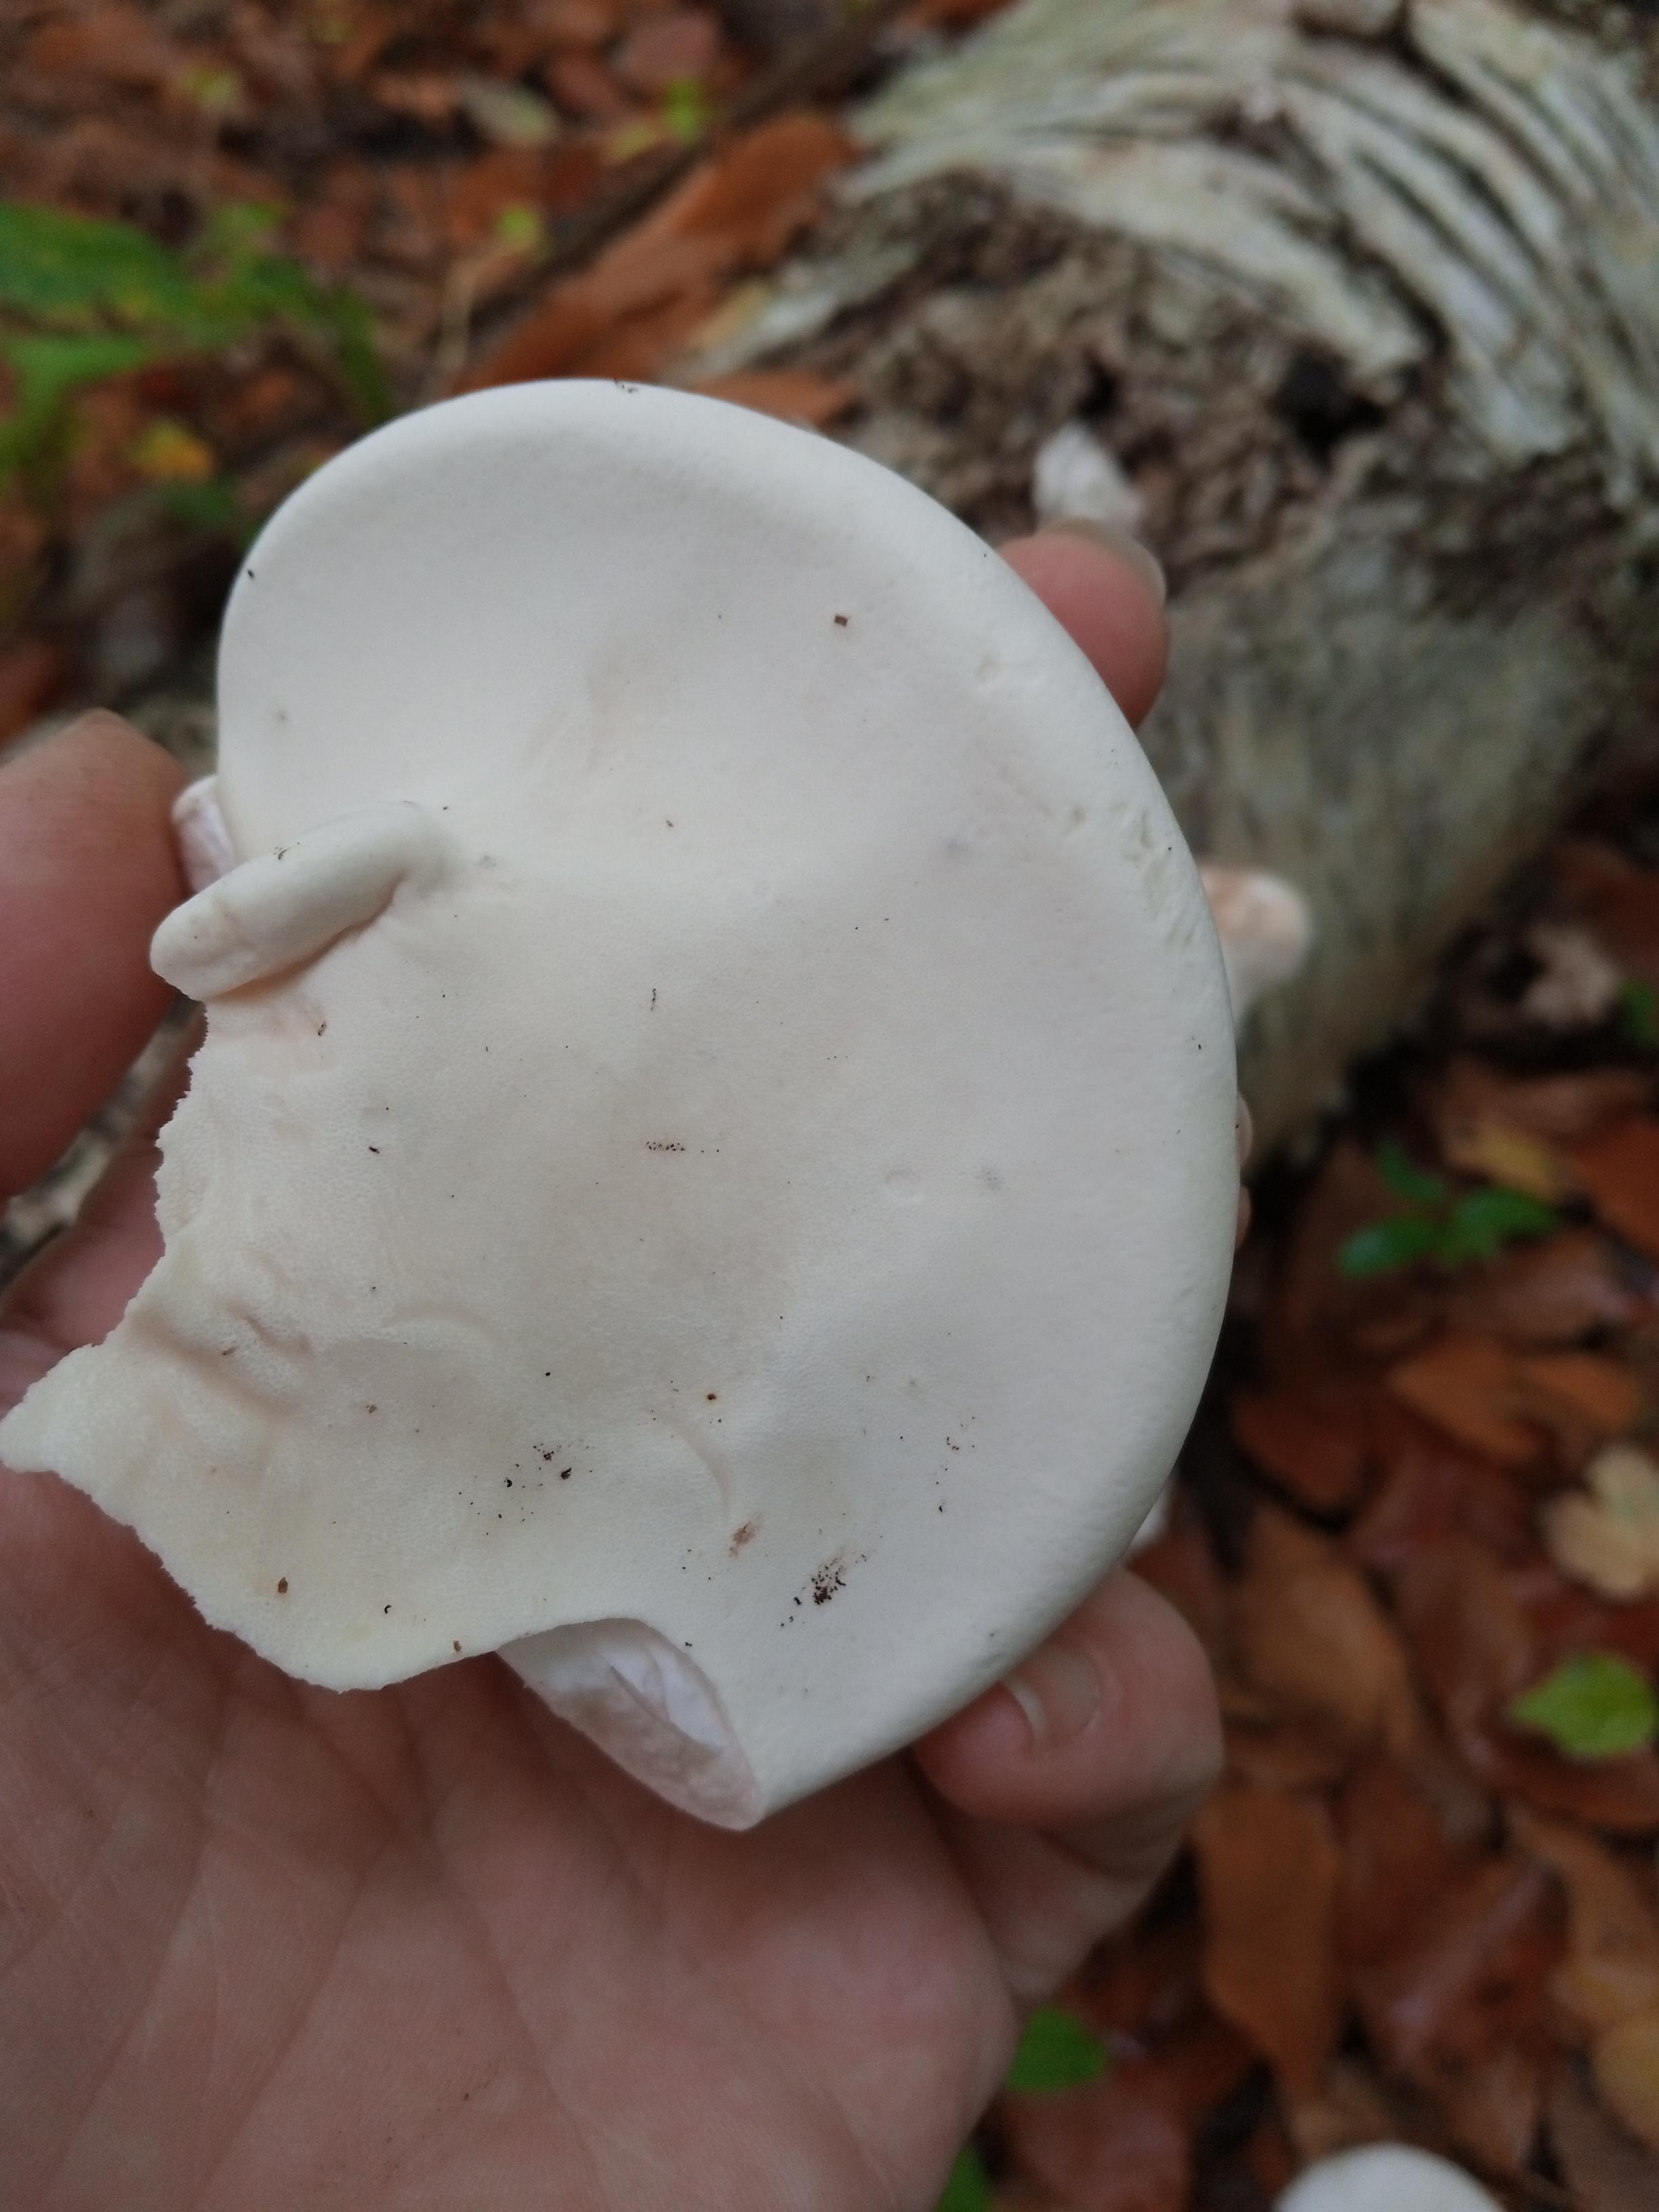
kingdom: Fungi
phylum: Basidiomycota
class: Agaricomycetes
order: Polyporales
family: Fomitopsidaceae
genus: Fomitopsis
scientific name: Fomitopsis betulina
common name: birkeporesvamp
